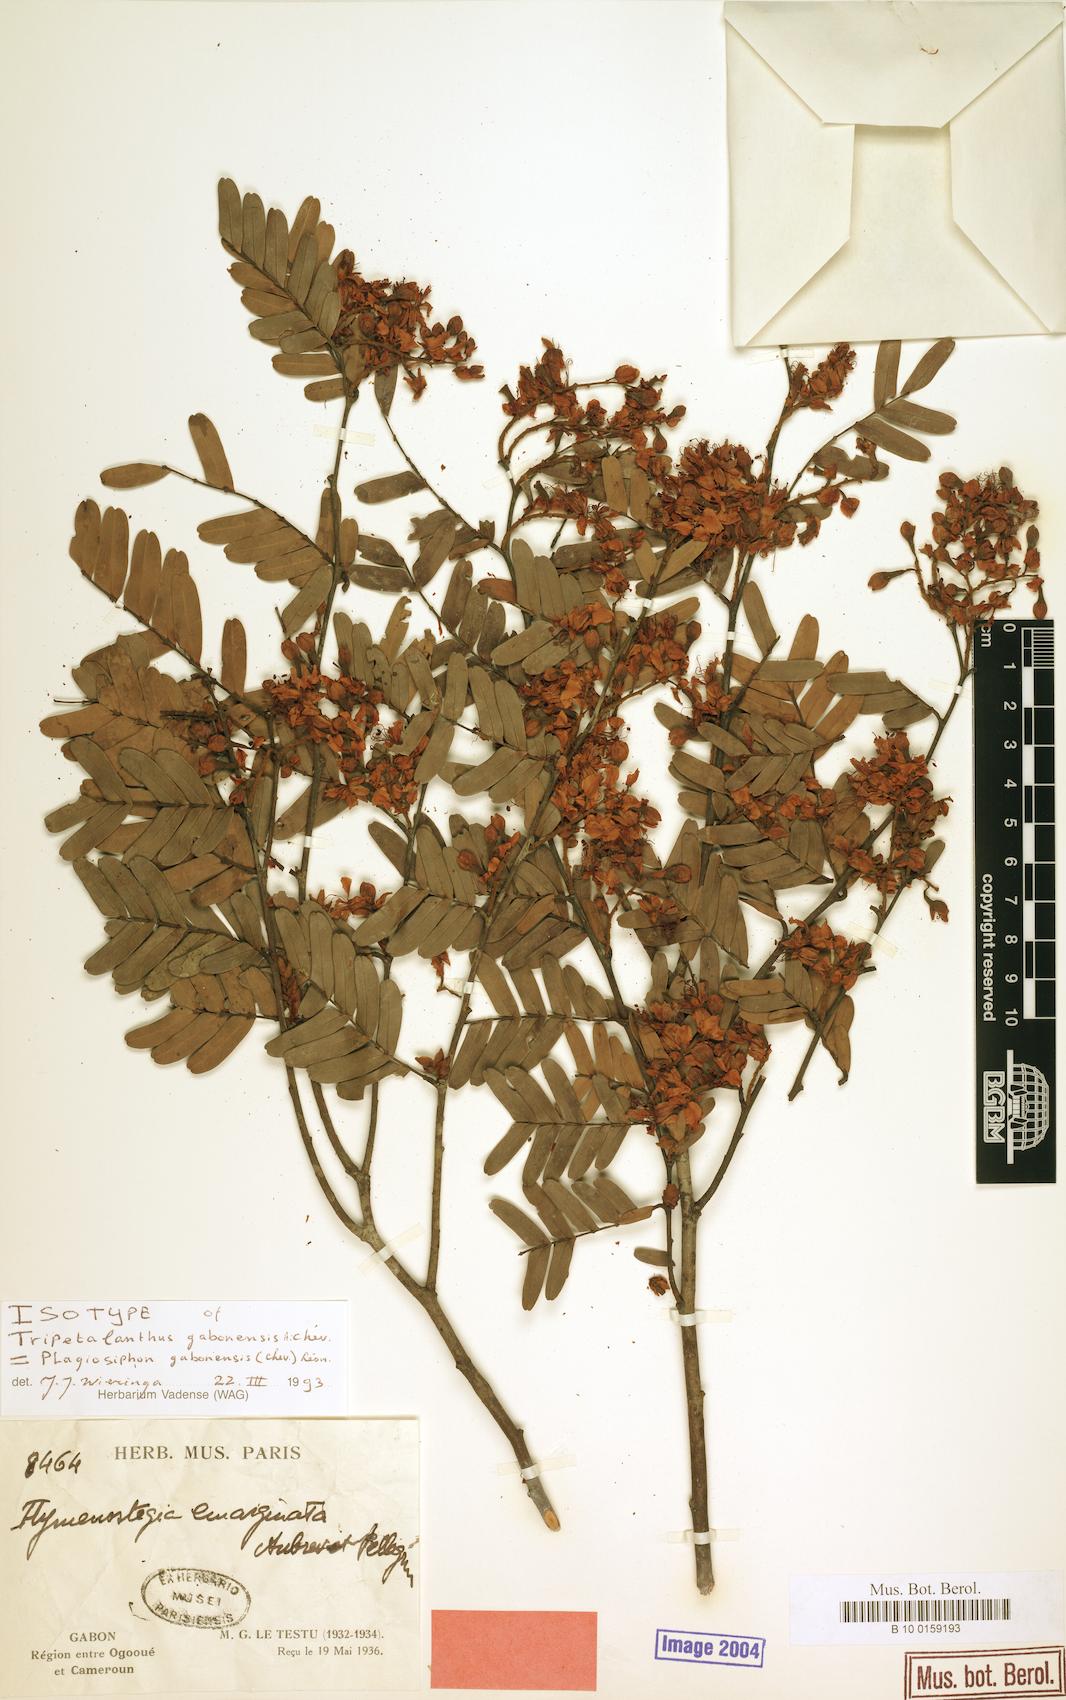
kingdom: Plantae
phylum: Tracheophyta
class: Magnoliopsida
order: Fabales
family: Fabaceae
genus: Plagiosiphon
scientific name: Plagiosiphon gabonensis
